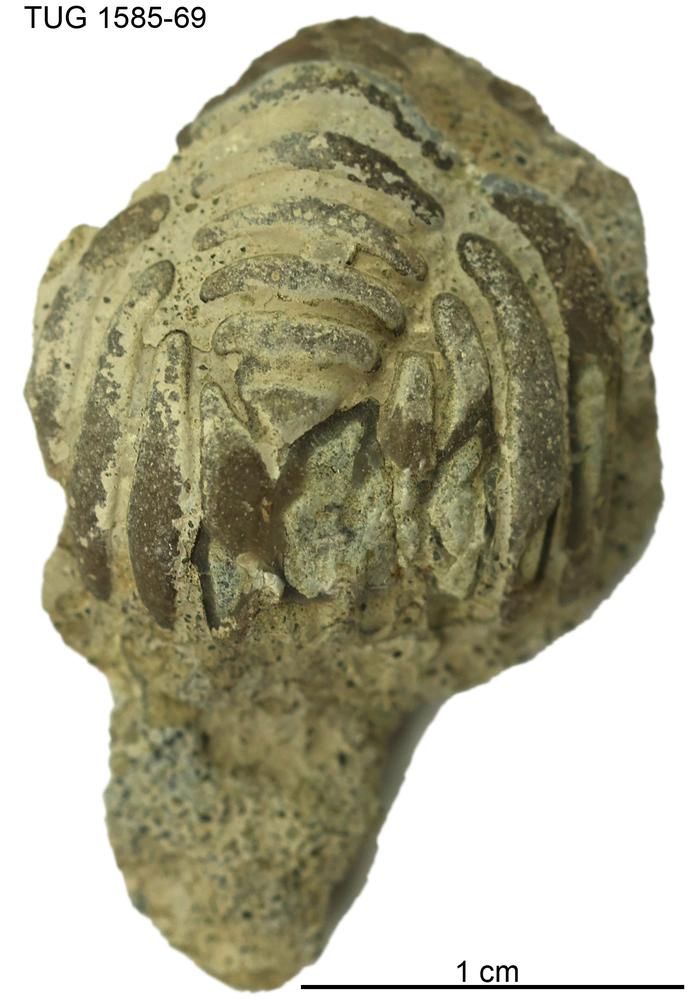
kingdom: Animalia
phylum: Arthropoda
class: Trilobita
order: Phacopida
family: Pliomeridae
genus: Pliomera
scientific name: Pliomera
